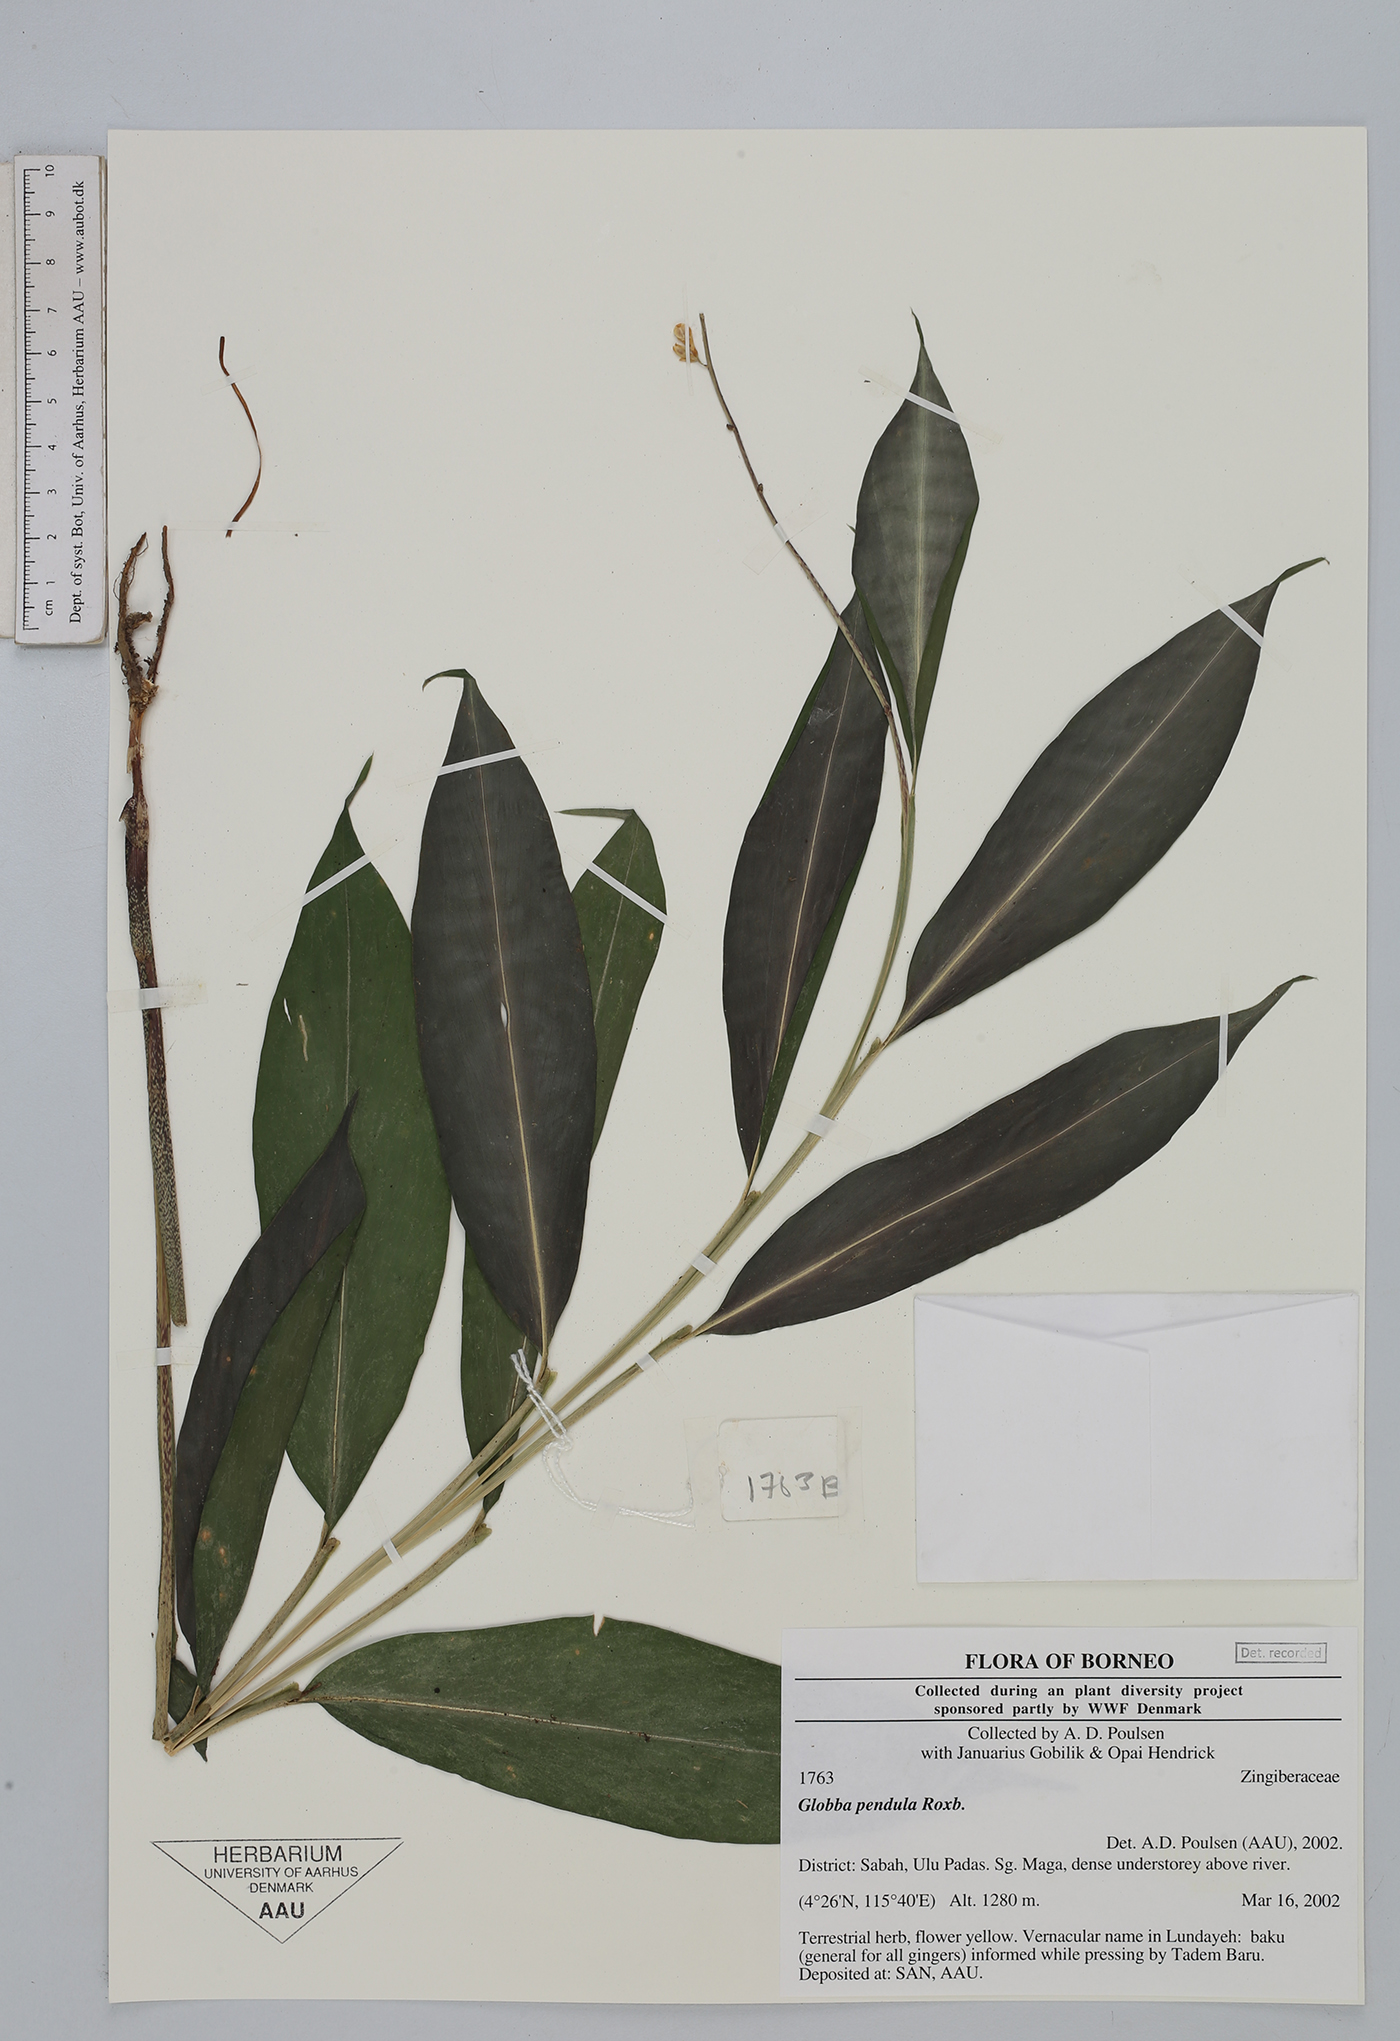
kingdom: Plantae
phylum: Tracheophyta
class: Liliopsida
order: Zingiberales
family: Zingiberaceae
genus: Globba
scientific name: Globba pendula
